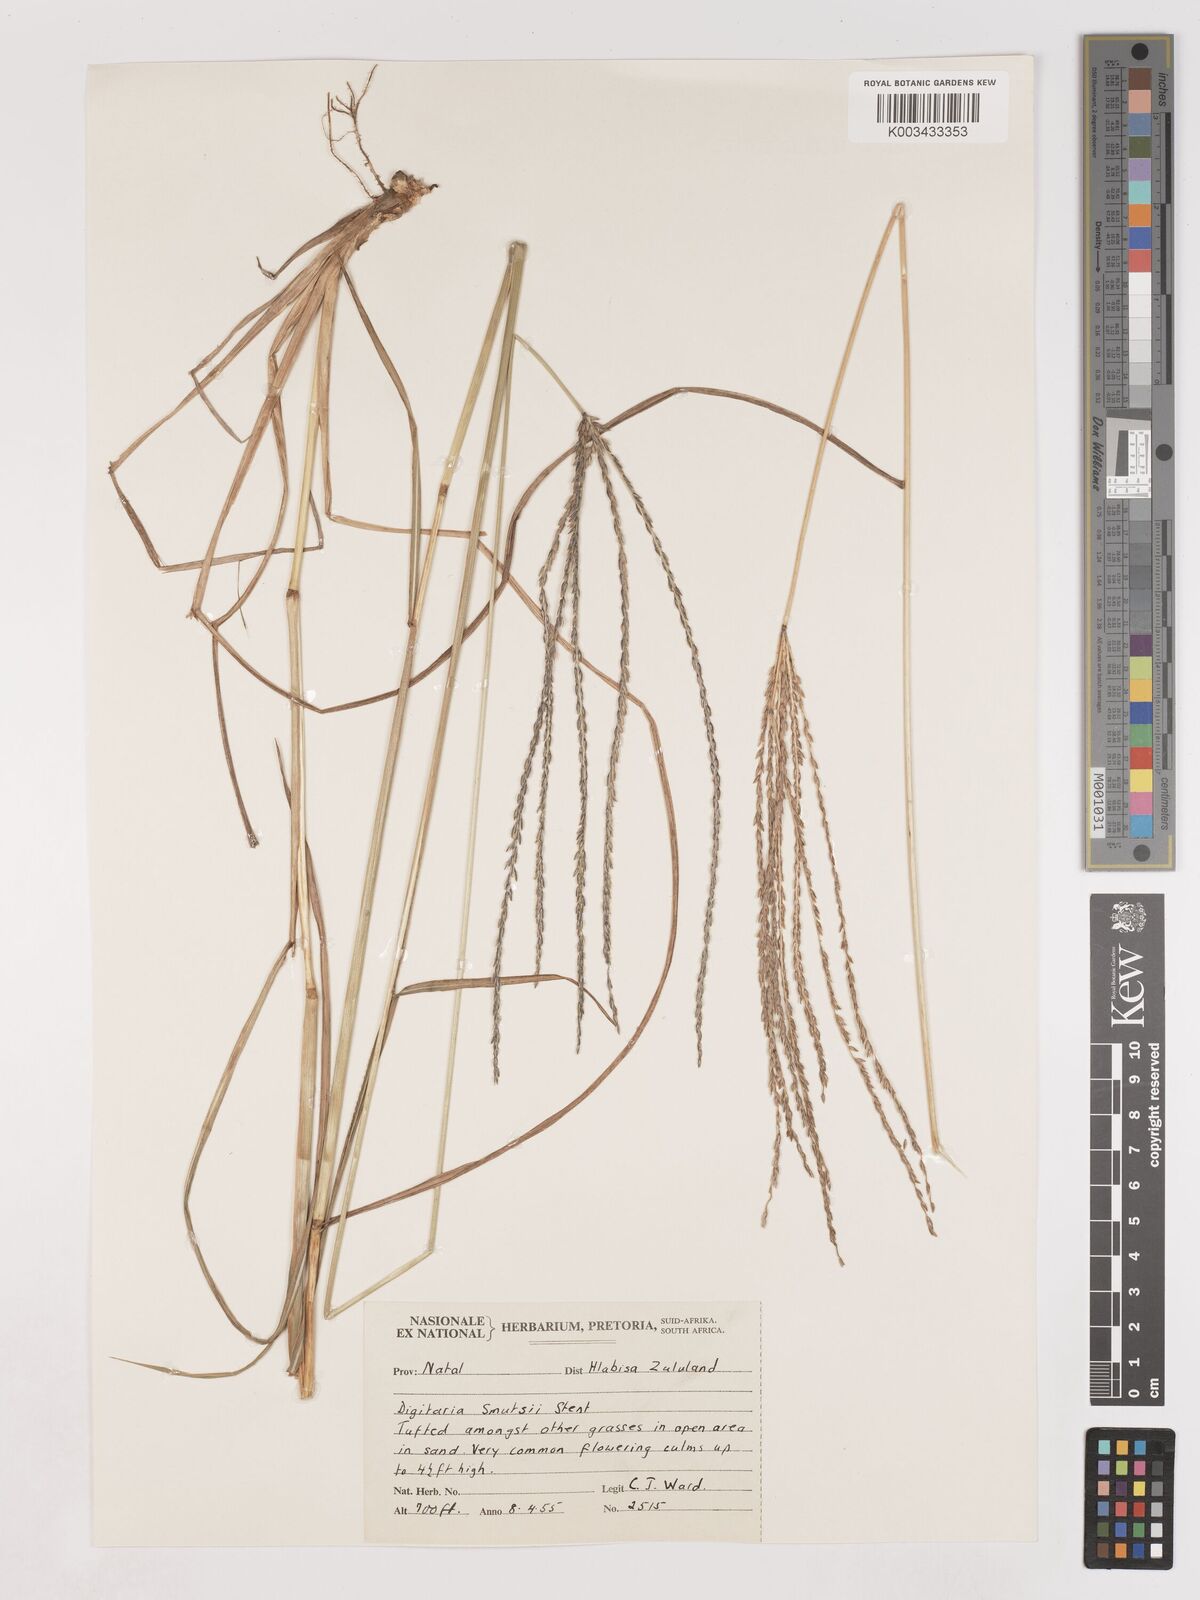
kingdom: Plantae
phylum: Tracheophyta
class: Liliopsida
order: Poales
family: Poaceae
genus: Digitaria
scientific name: Digitaria eriantha
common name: Digitgrass
